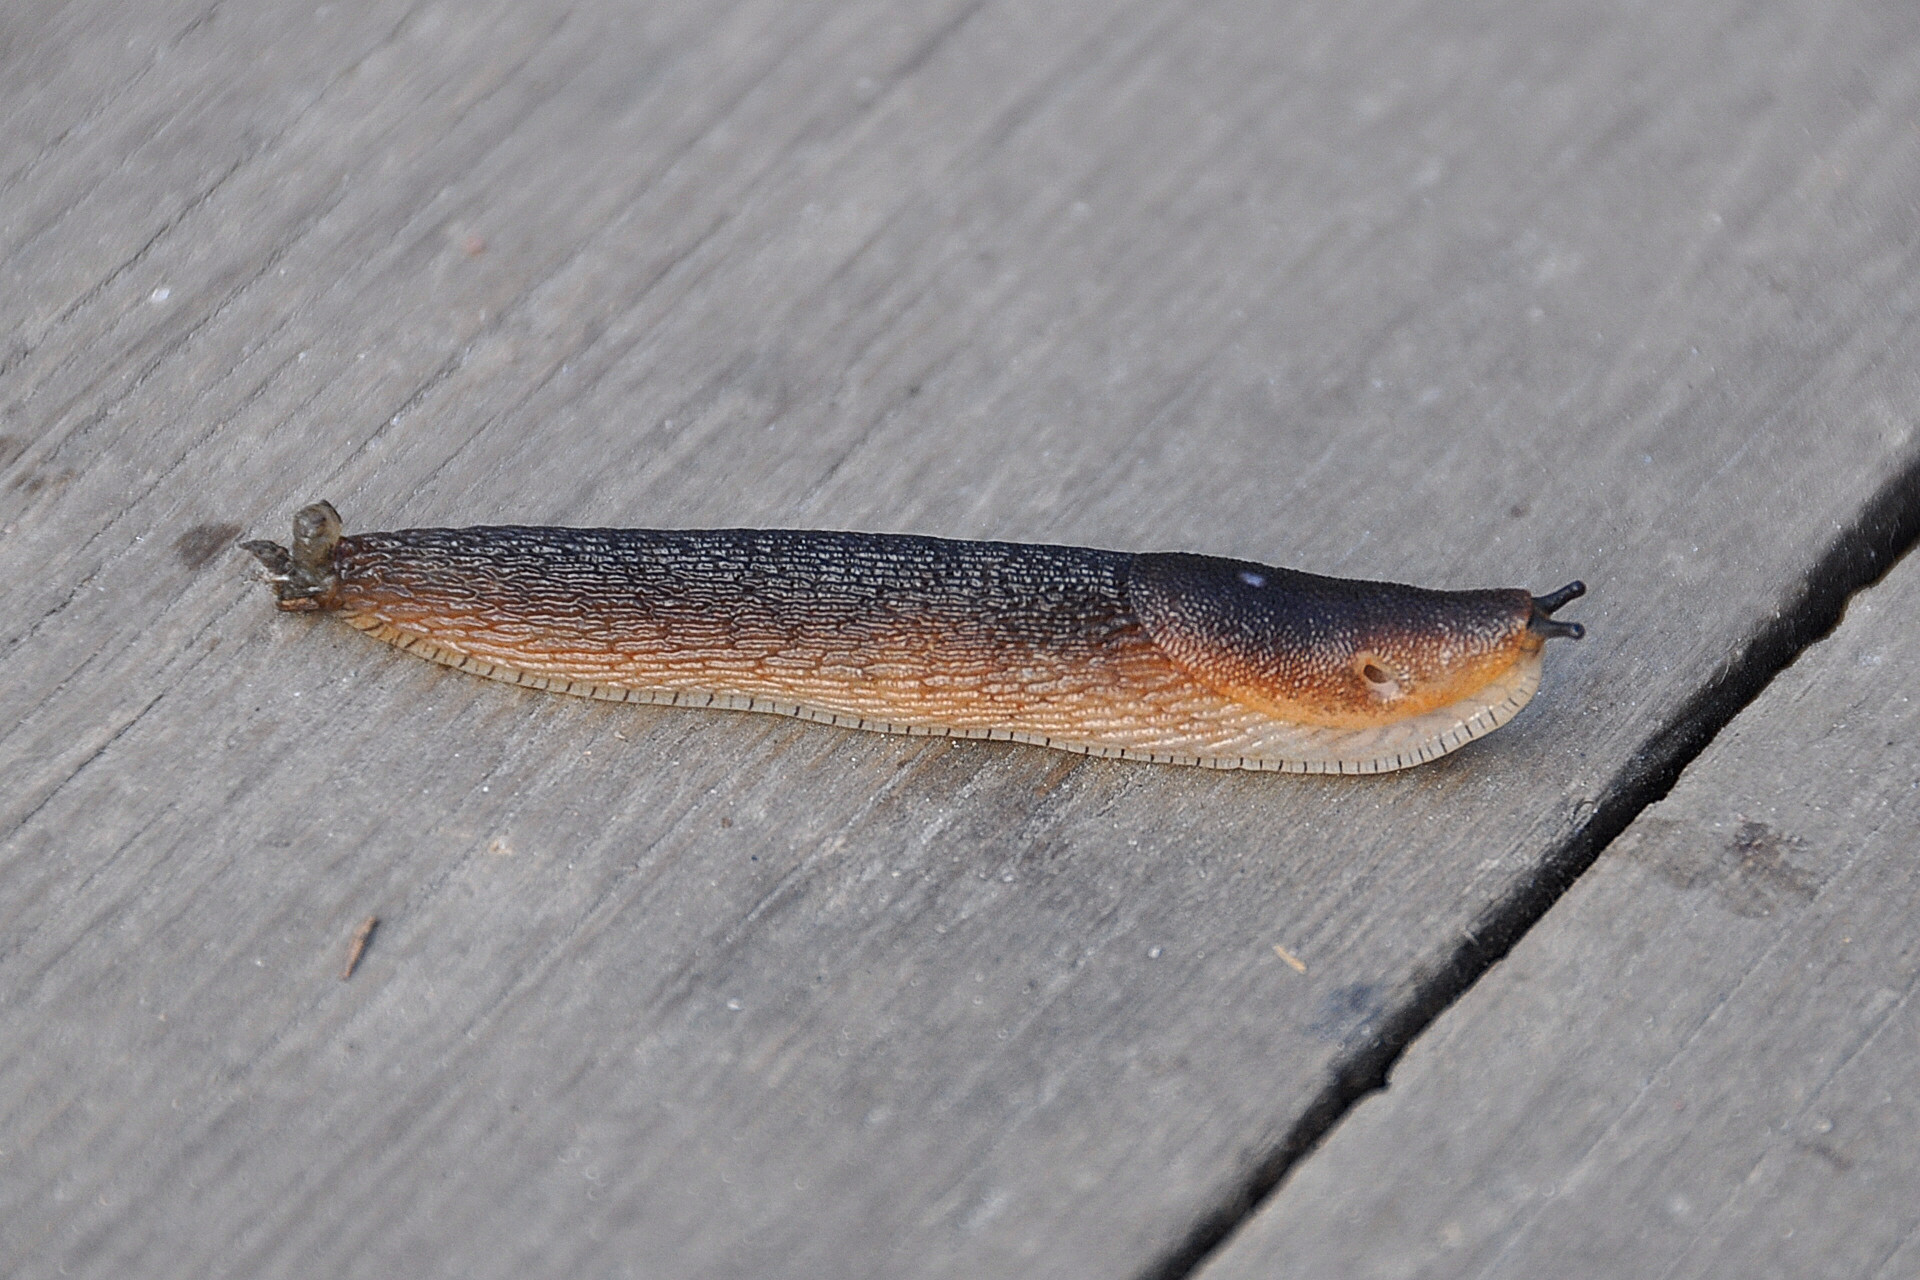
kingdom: Animalia
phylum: Mollusca
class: Gastropoda
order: Stylommatophora
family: Arionidae
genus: Arion
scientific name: Arion vulgaris
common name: Lusitanian slug
